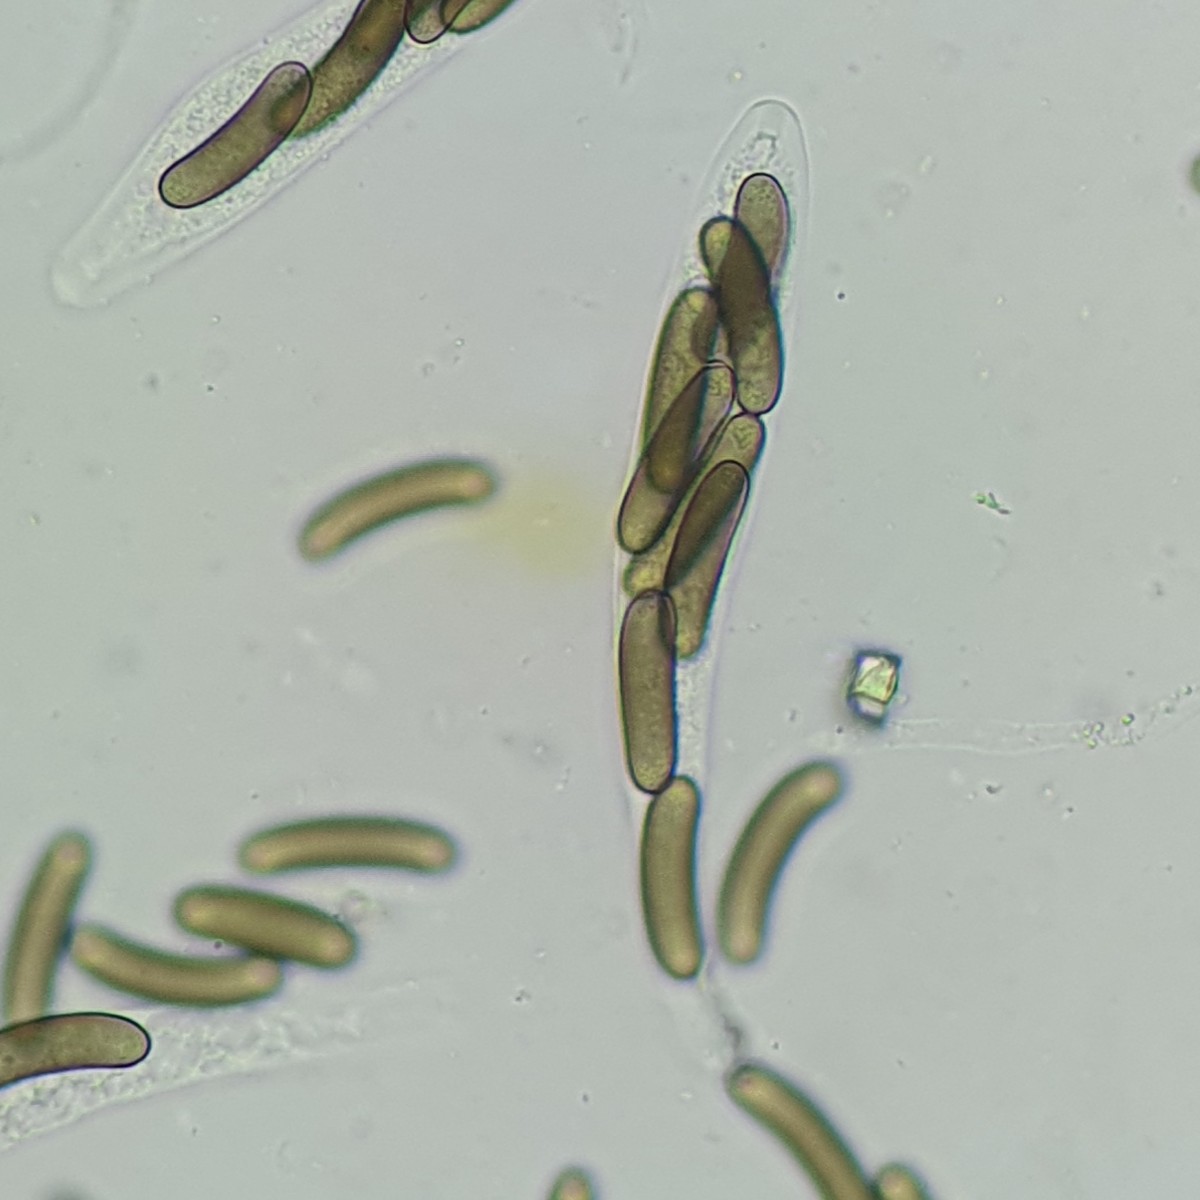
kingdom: Fungi
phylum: Ascomycota
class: Sordariomycetes
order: Xylariales
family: Diatrypaceae
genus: Quaternaria
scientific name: Quaternaria dissepta
